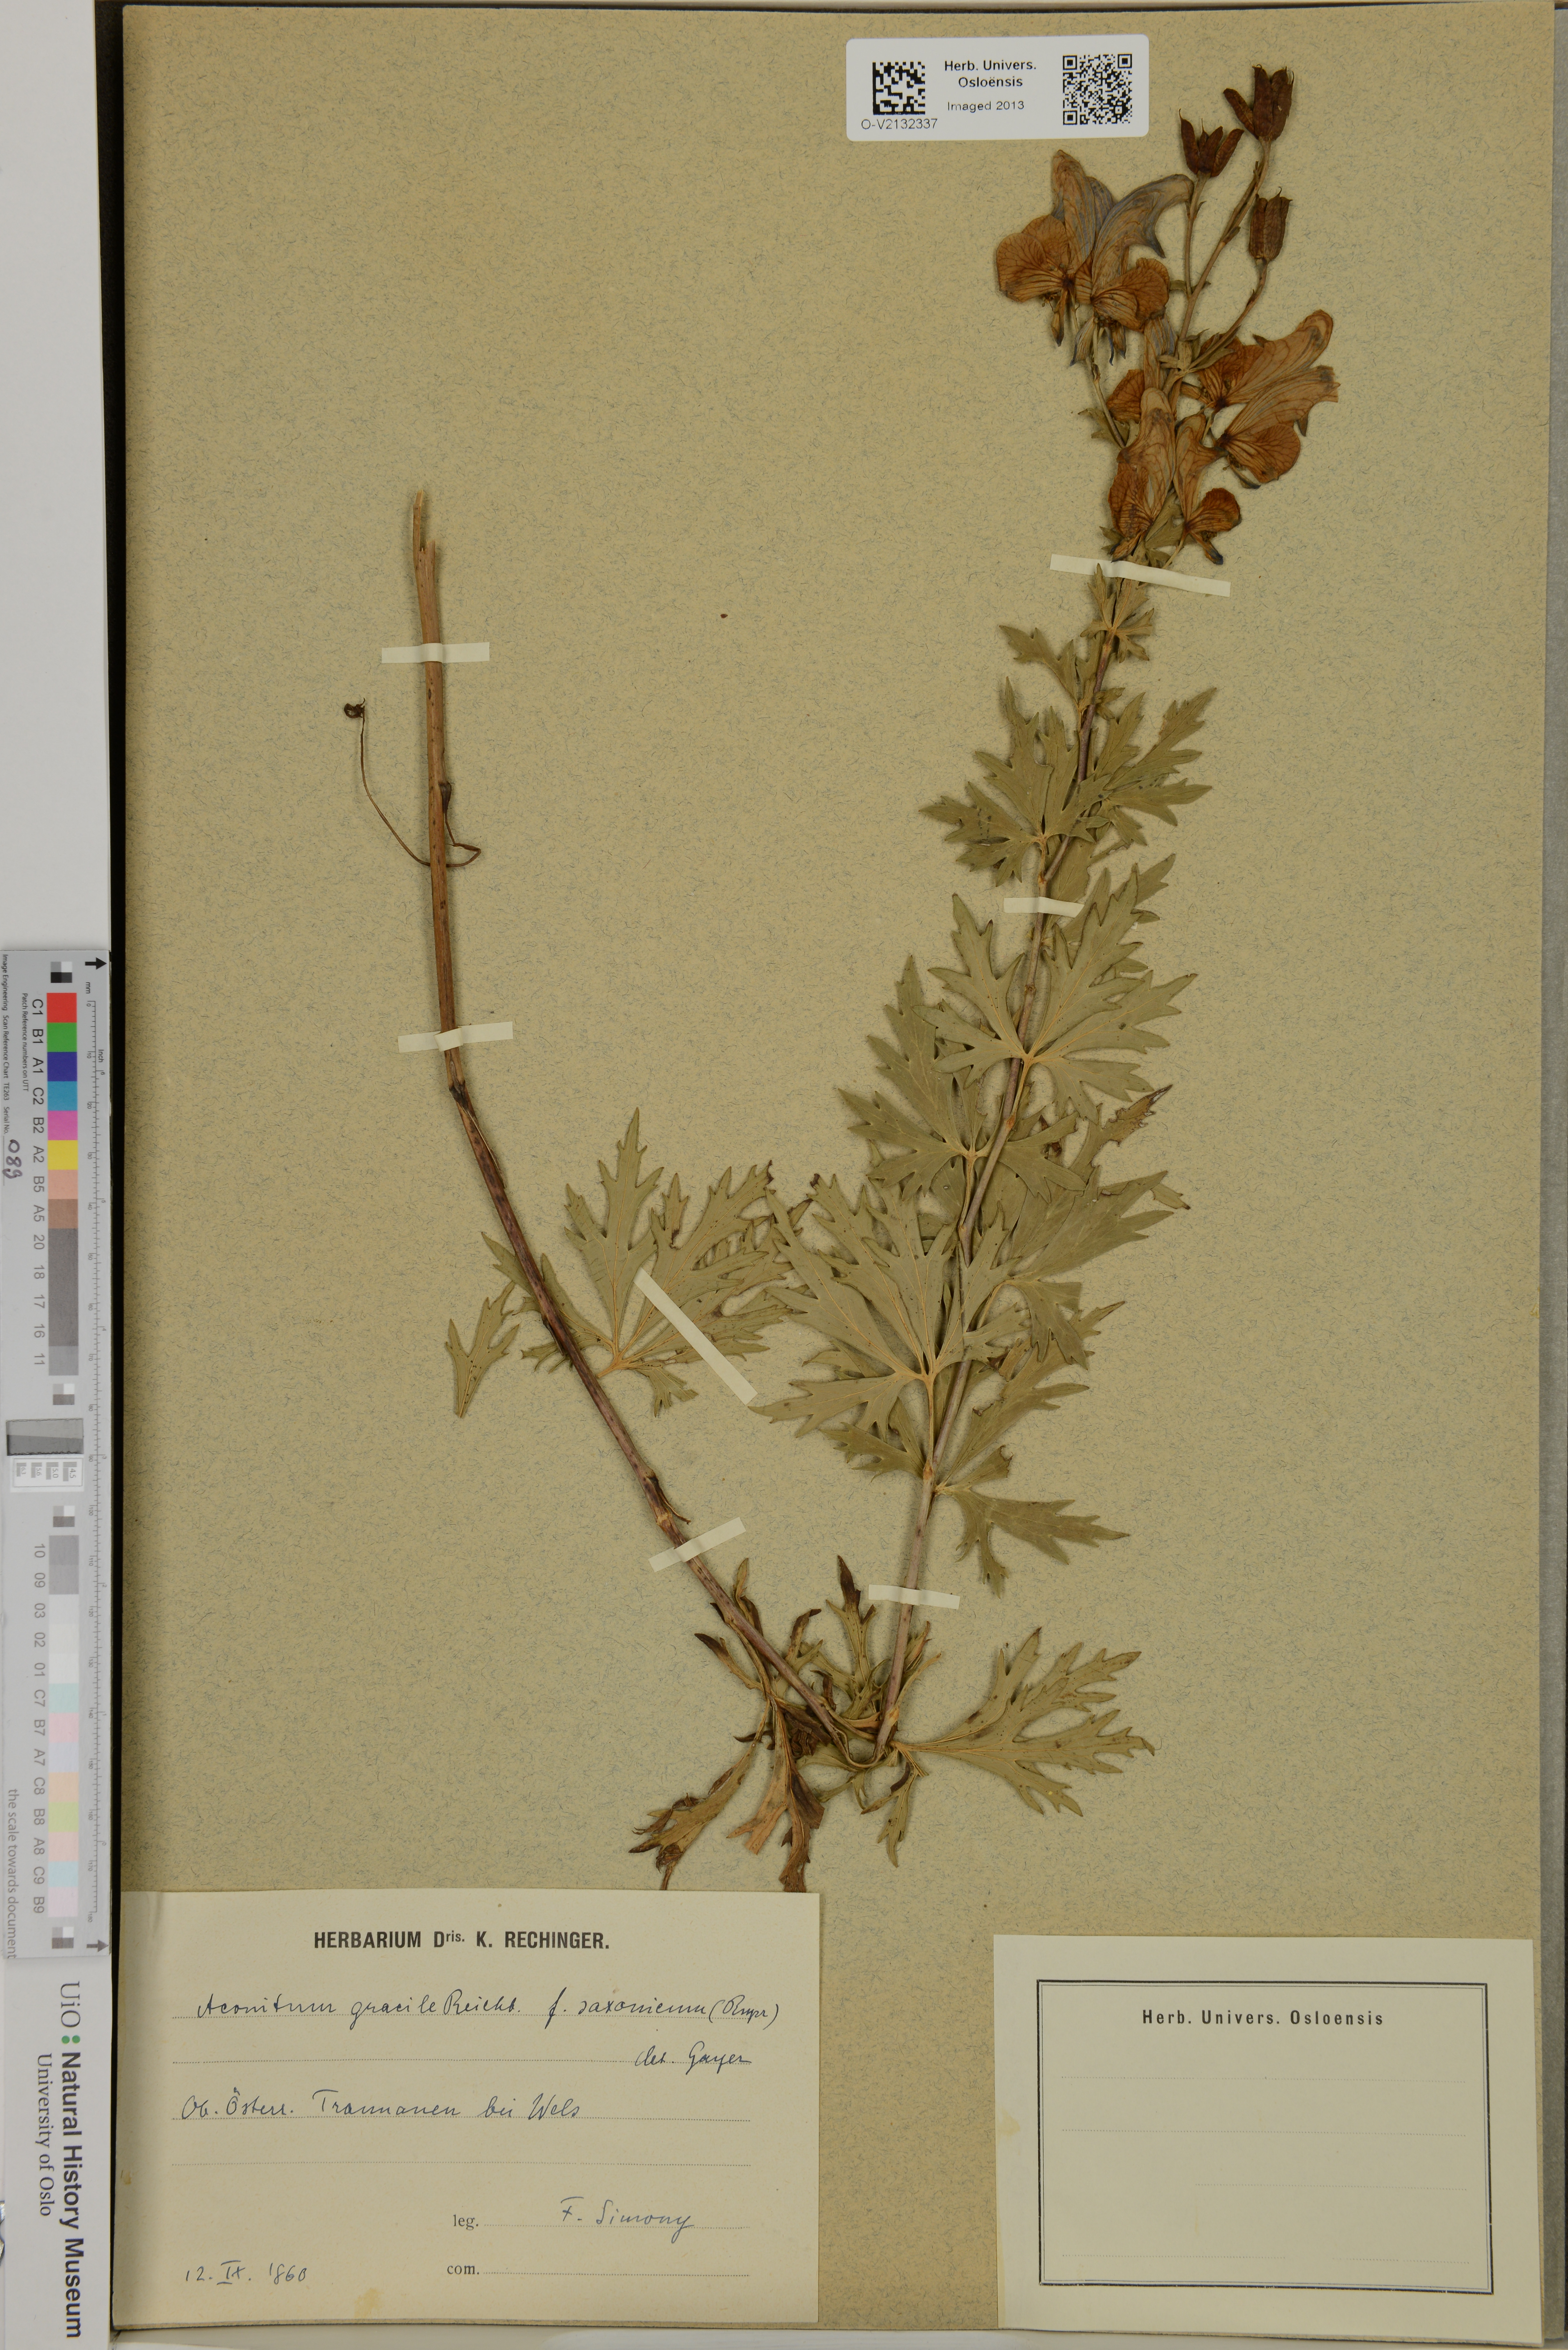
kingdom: Plantae
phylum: Tracheophyta
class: Magnoliopsida
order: Ranunculales
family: Ranunculaceae
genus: Aconitum
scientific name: Aconitum variegatum
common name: Manchurian monkshood
